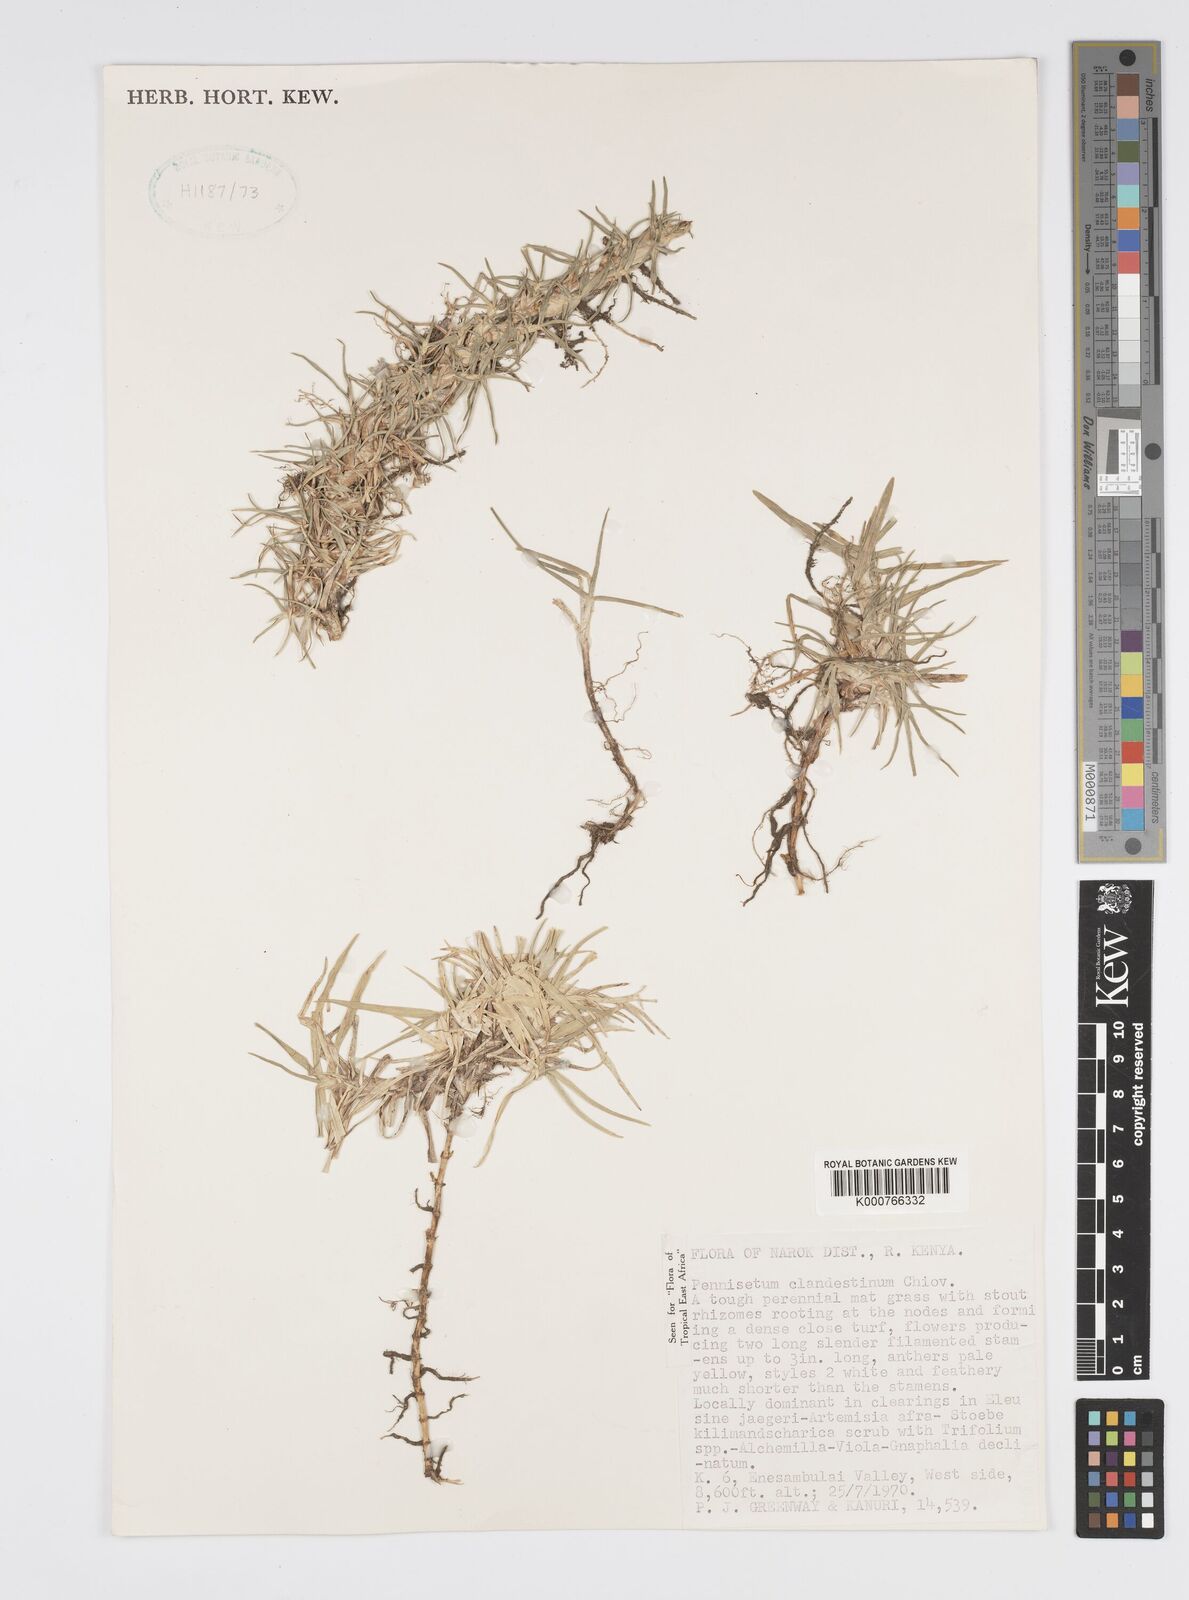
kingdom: Plantae
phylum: Tracheophyta
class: Liliopsida
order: Poales
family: Poaceae
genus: Cenchrus
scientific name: Cenchrus clandestinus
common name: Kikuyugrass
